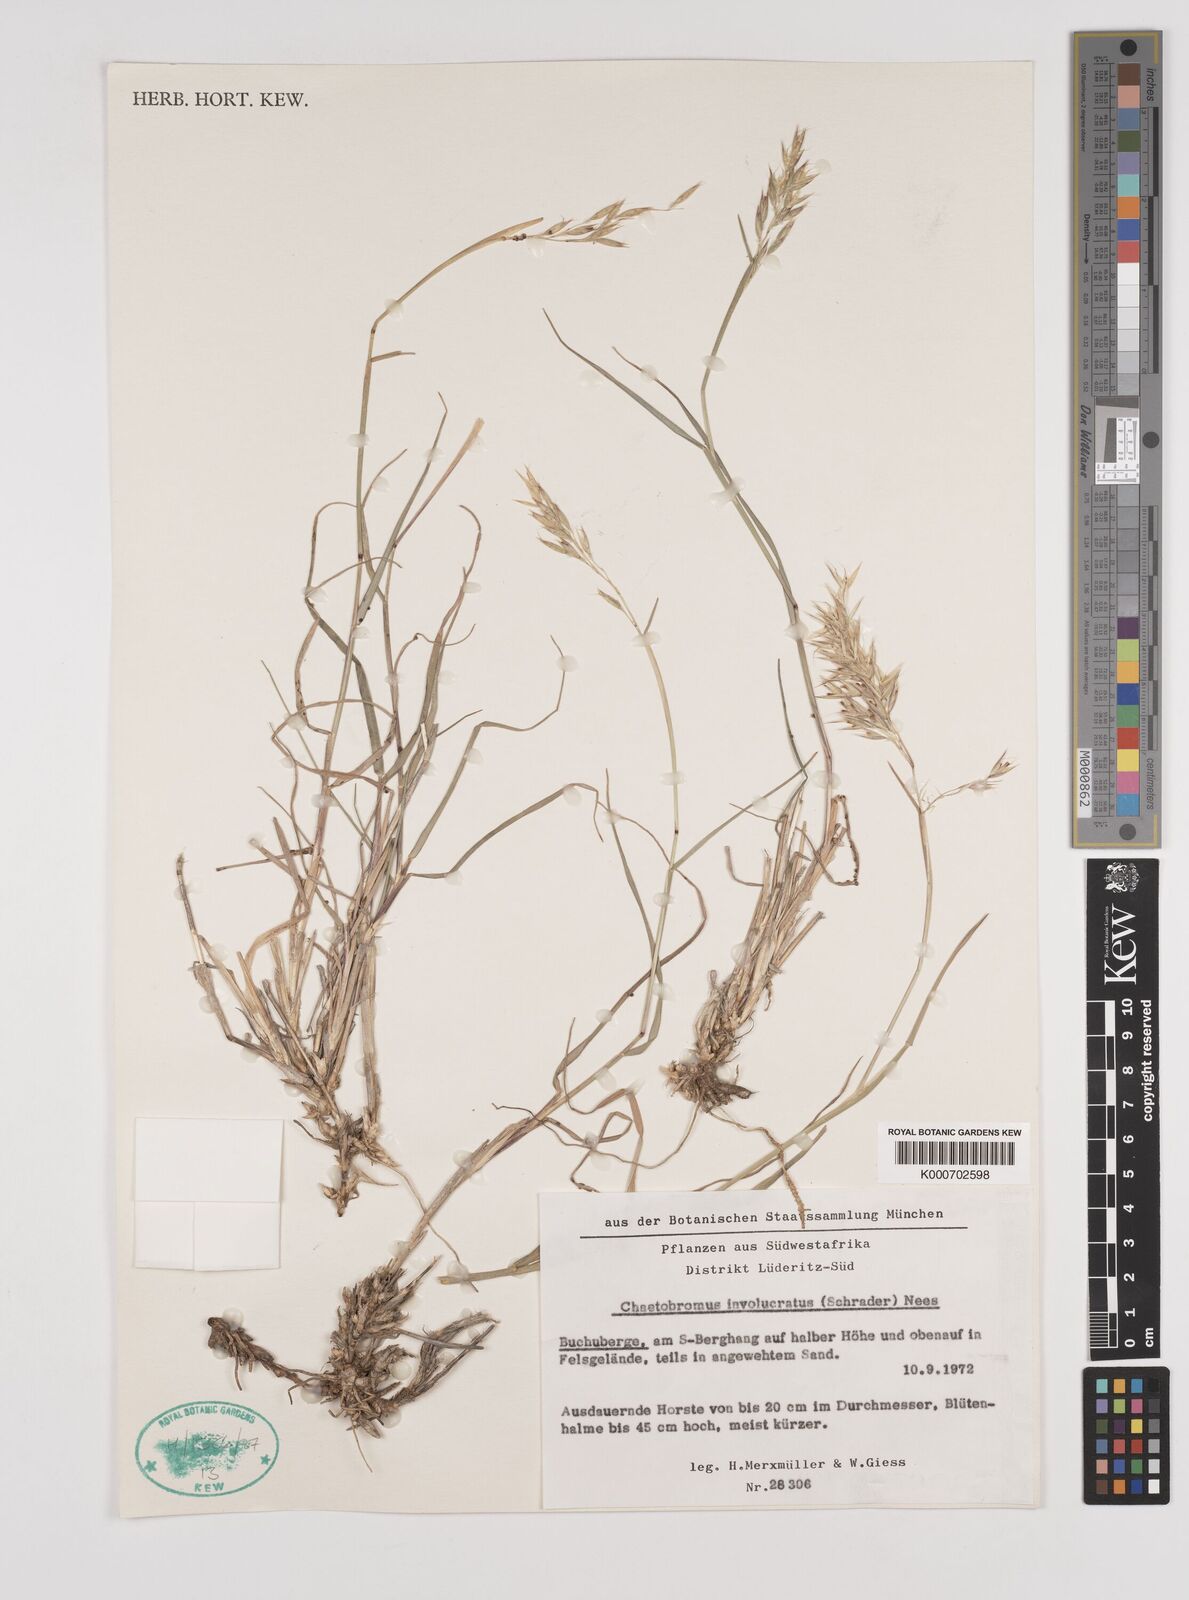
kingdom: Plantae
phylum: Tracheophyta
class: Liliopsida
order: Poales
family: Poaceae
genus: Chaetobromus
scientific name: Chaetobromus involucratus
